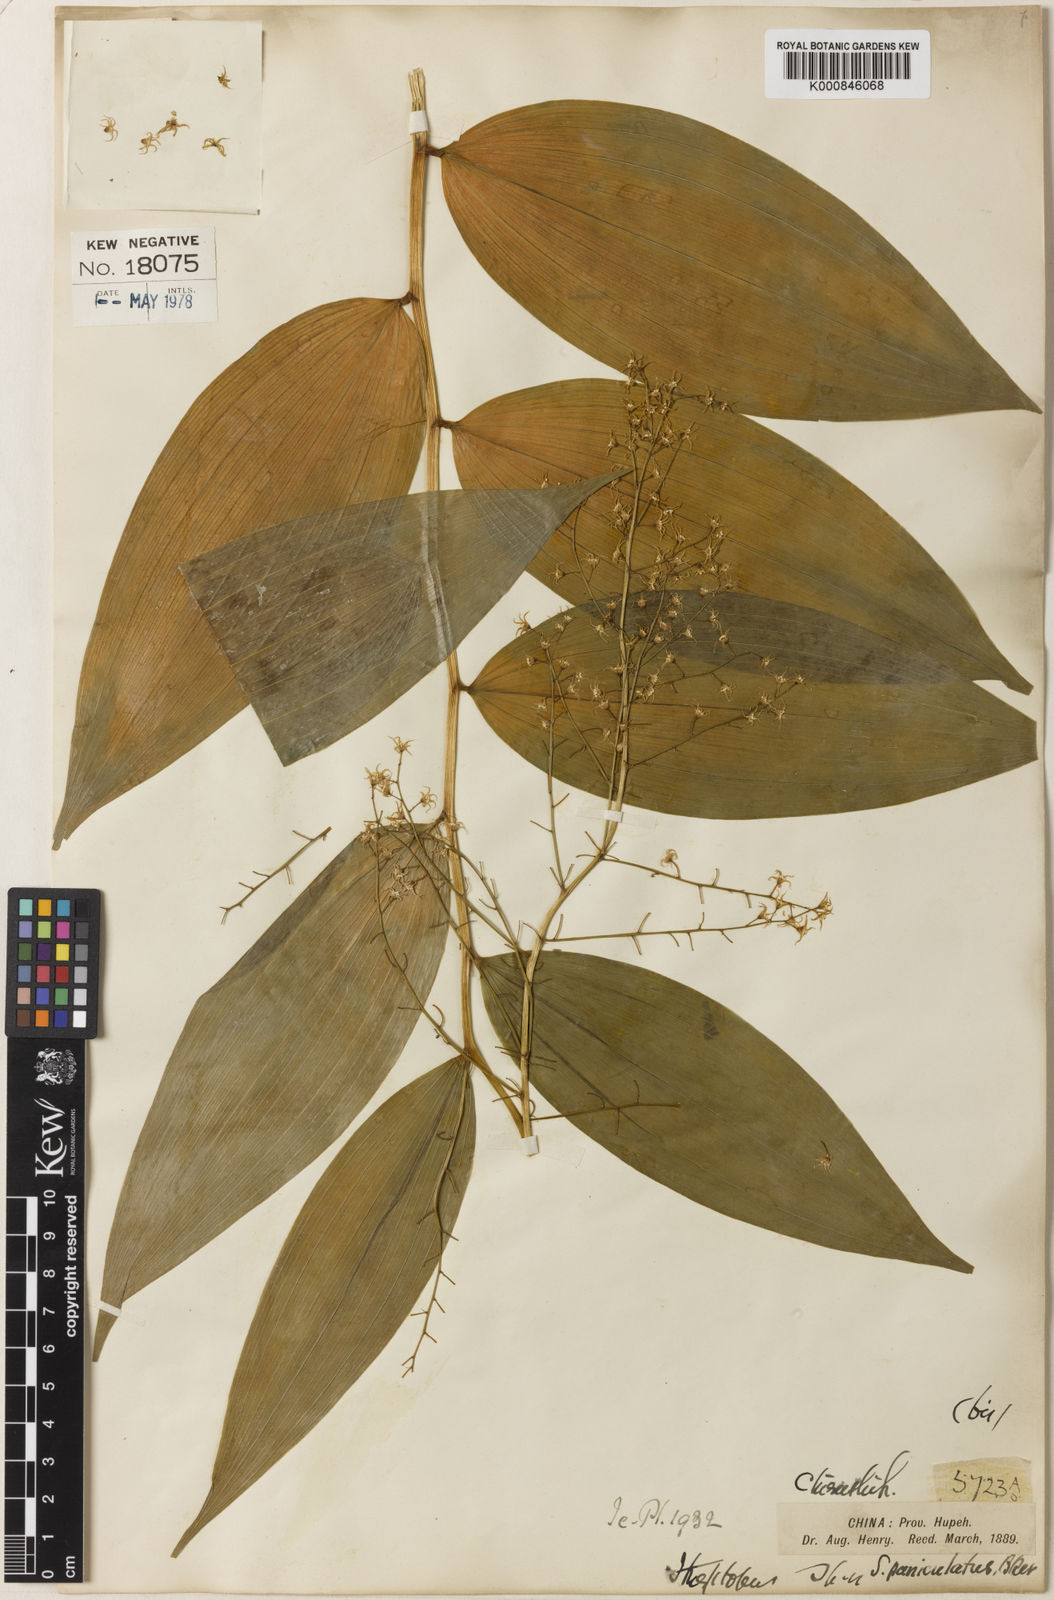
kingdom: Plantae
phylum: Tracheophyta
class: Liliopsida
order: Asparagales
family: Asparagaceae
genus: Maianthemum
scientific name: Maianthemum paniculatum
